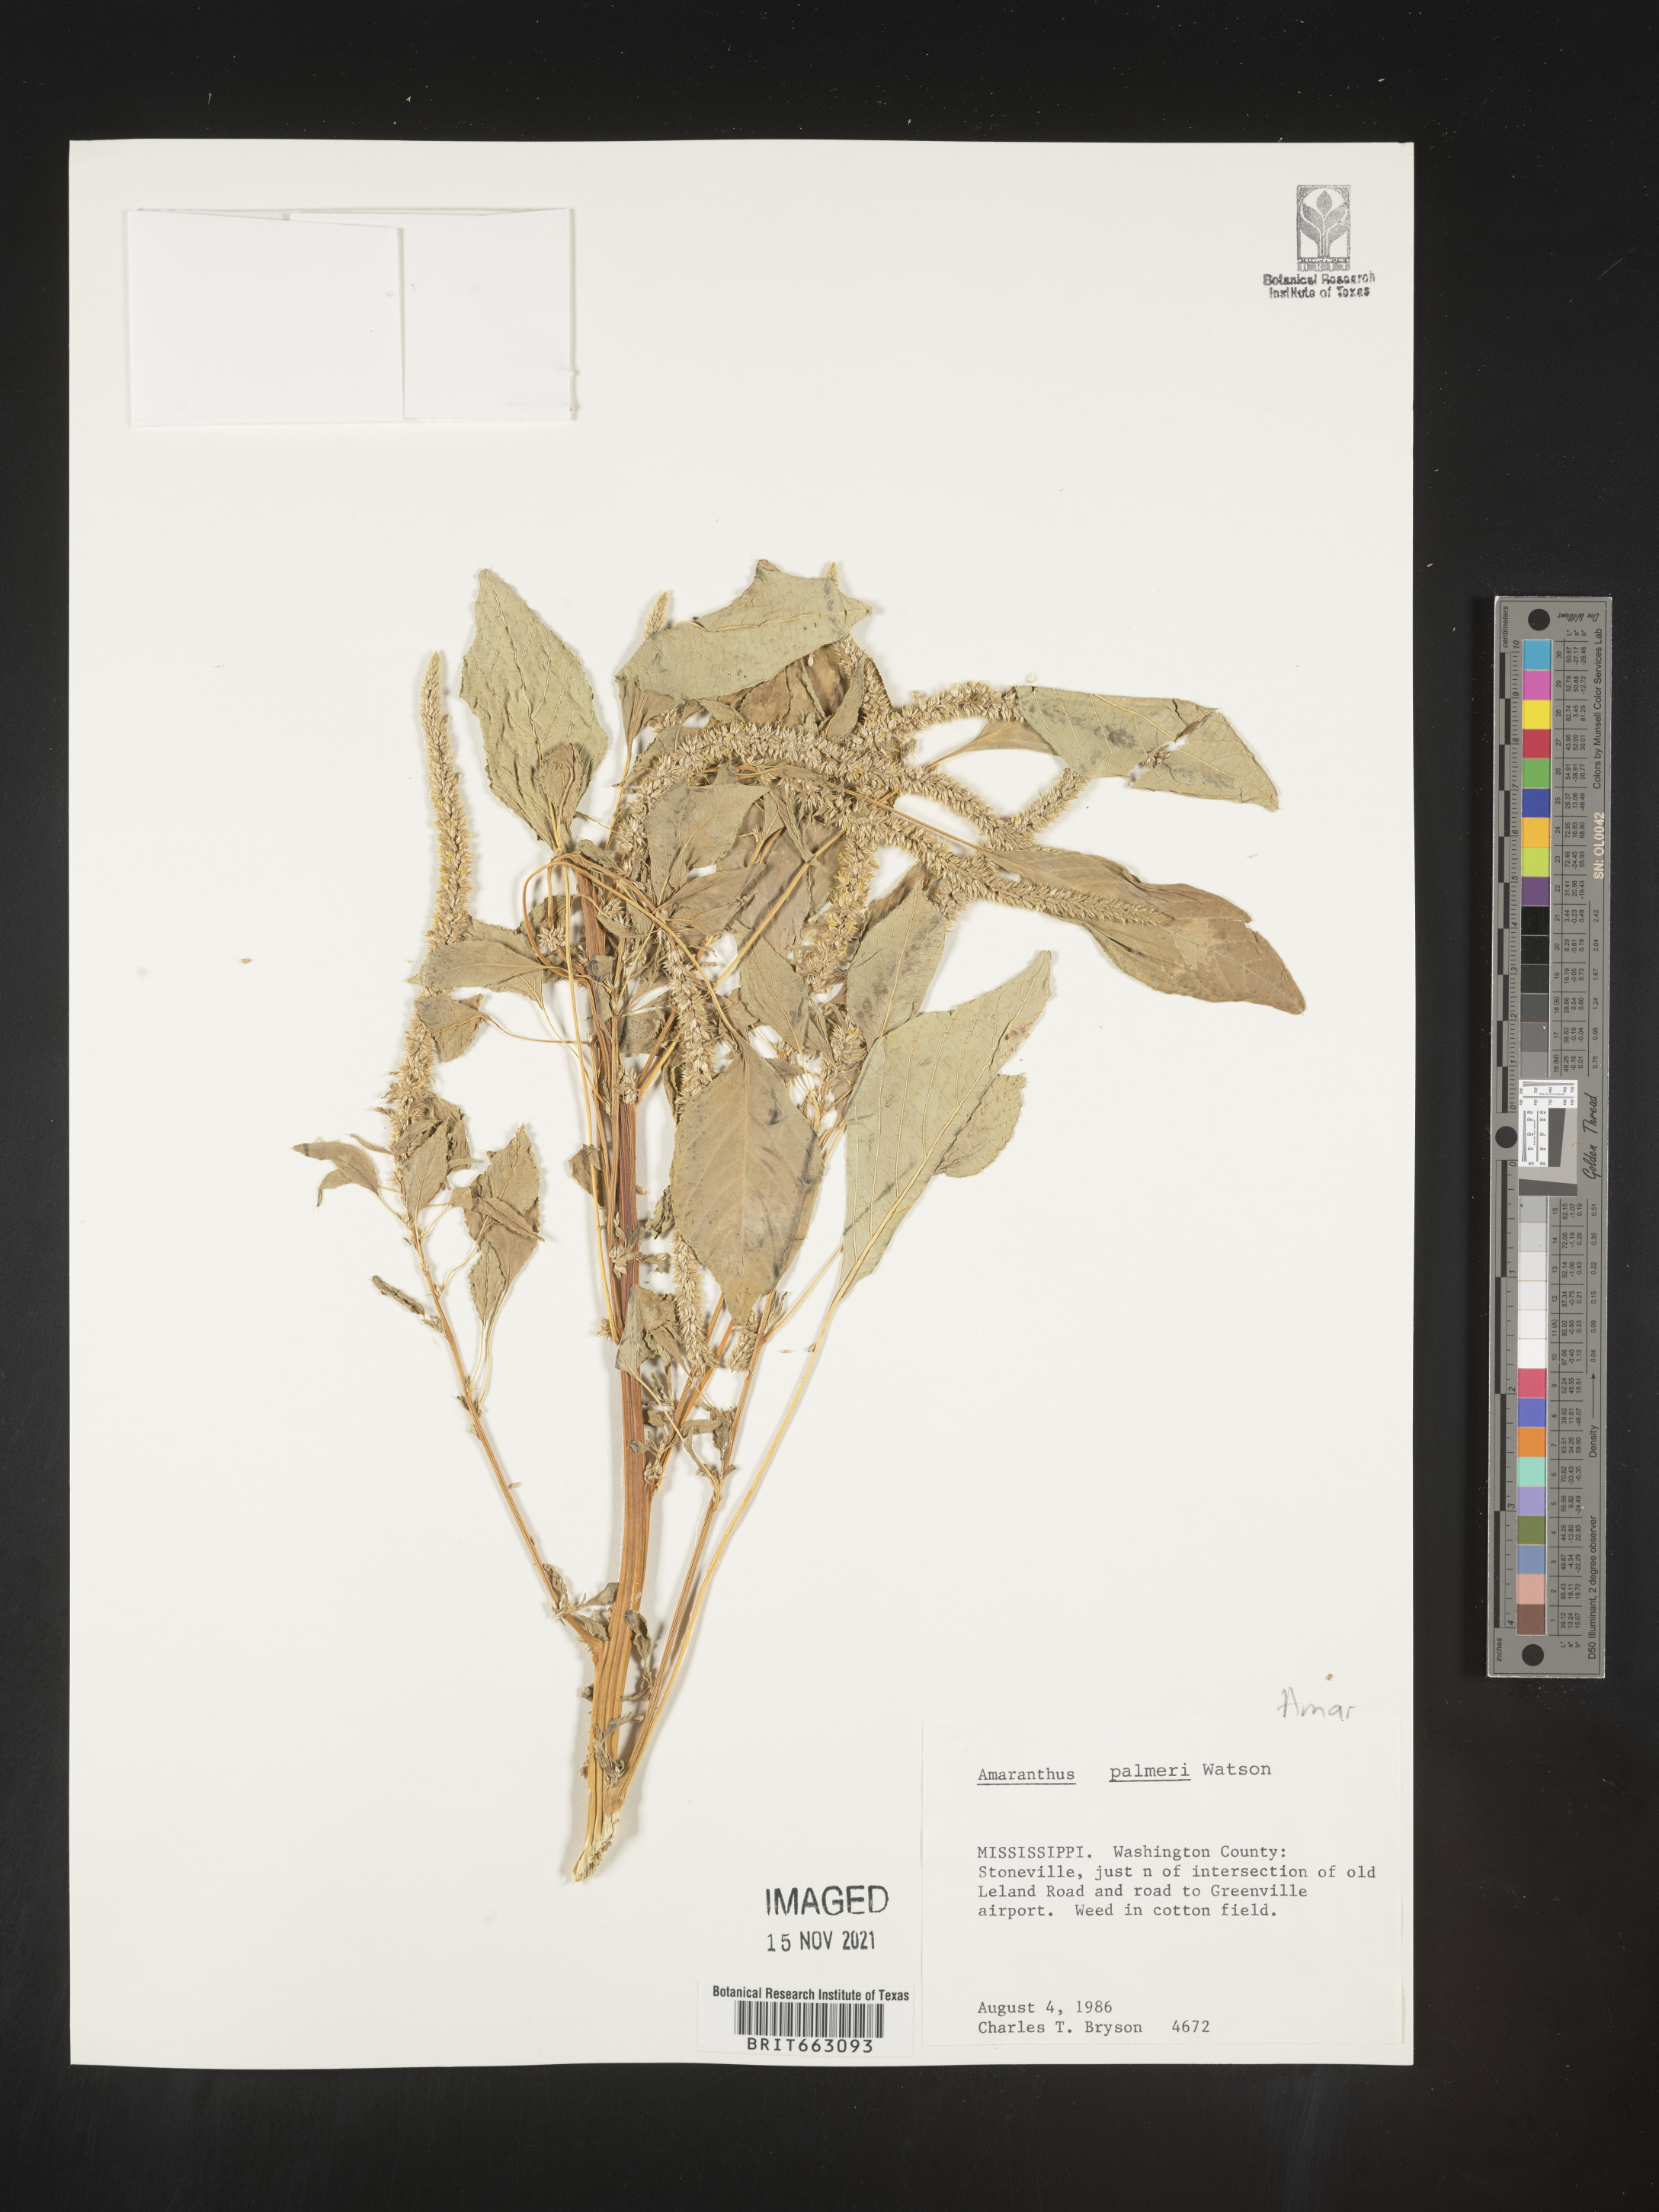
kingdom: Plantae
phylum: Tracheophyta
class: Magnoliopsida
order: Caryophyllales
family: Amaranthaceae
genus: Amaranthus
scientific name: Amaranthus palmeri
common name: Dioecious amaranth
